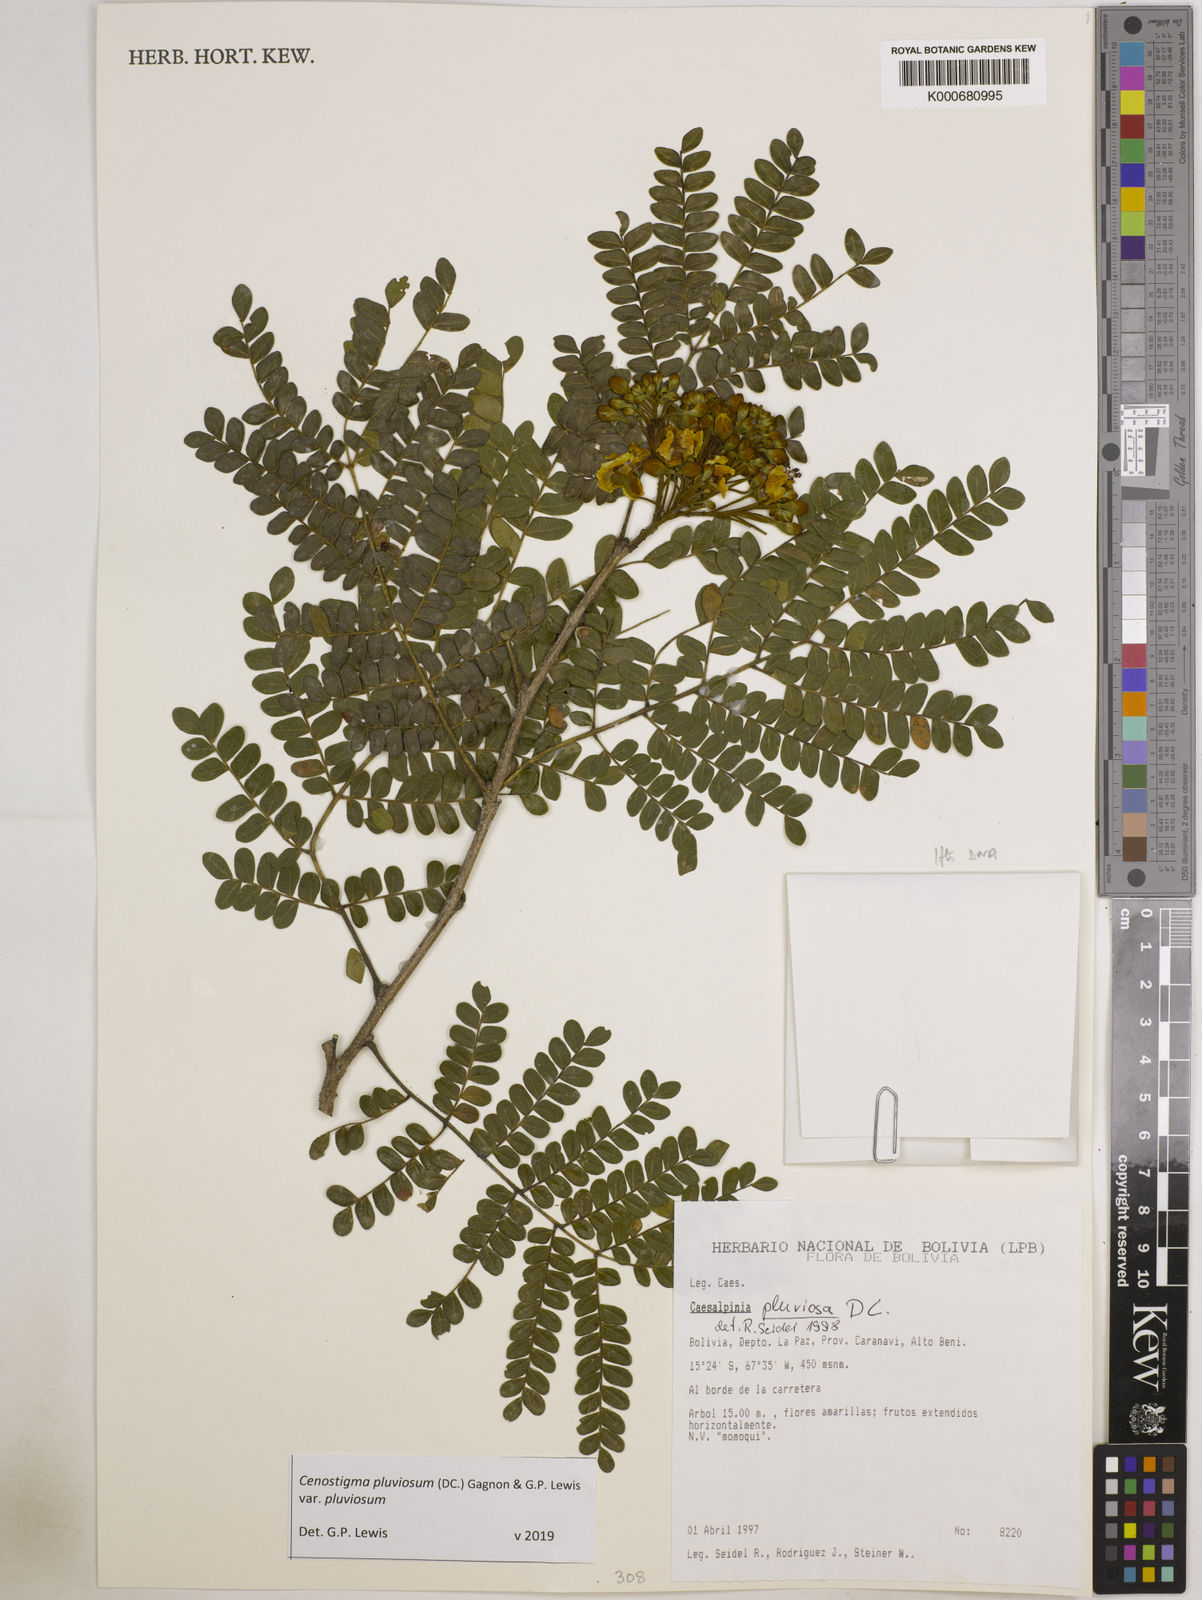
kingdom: Plantae
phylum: Tracheophyta
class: Magnoliopsida
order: Fabales
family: Fabaceae
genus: Cenostigma
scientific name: Cenostigma pluviosum
